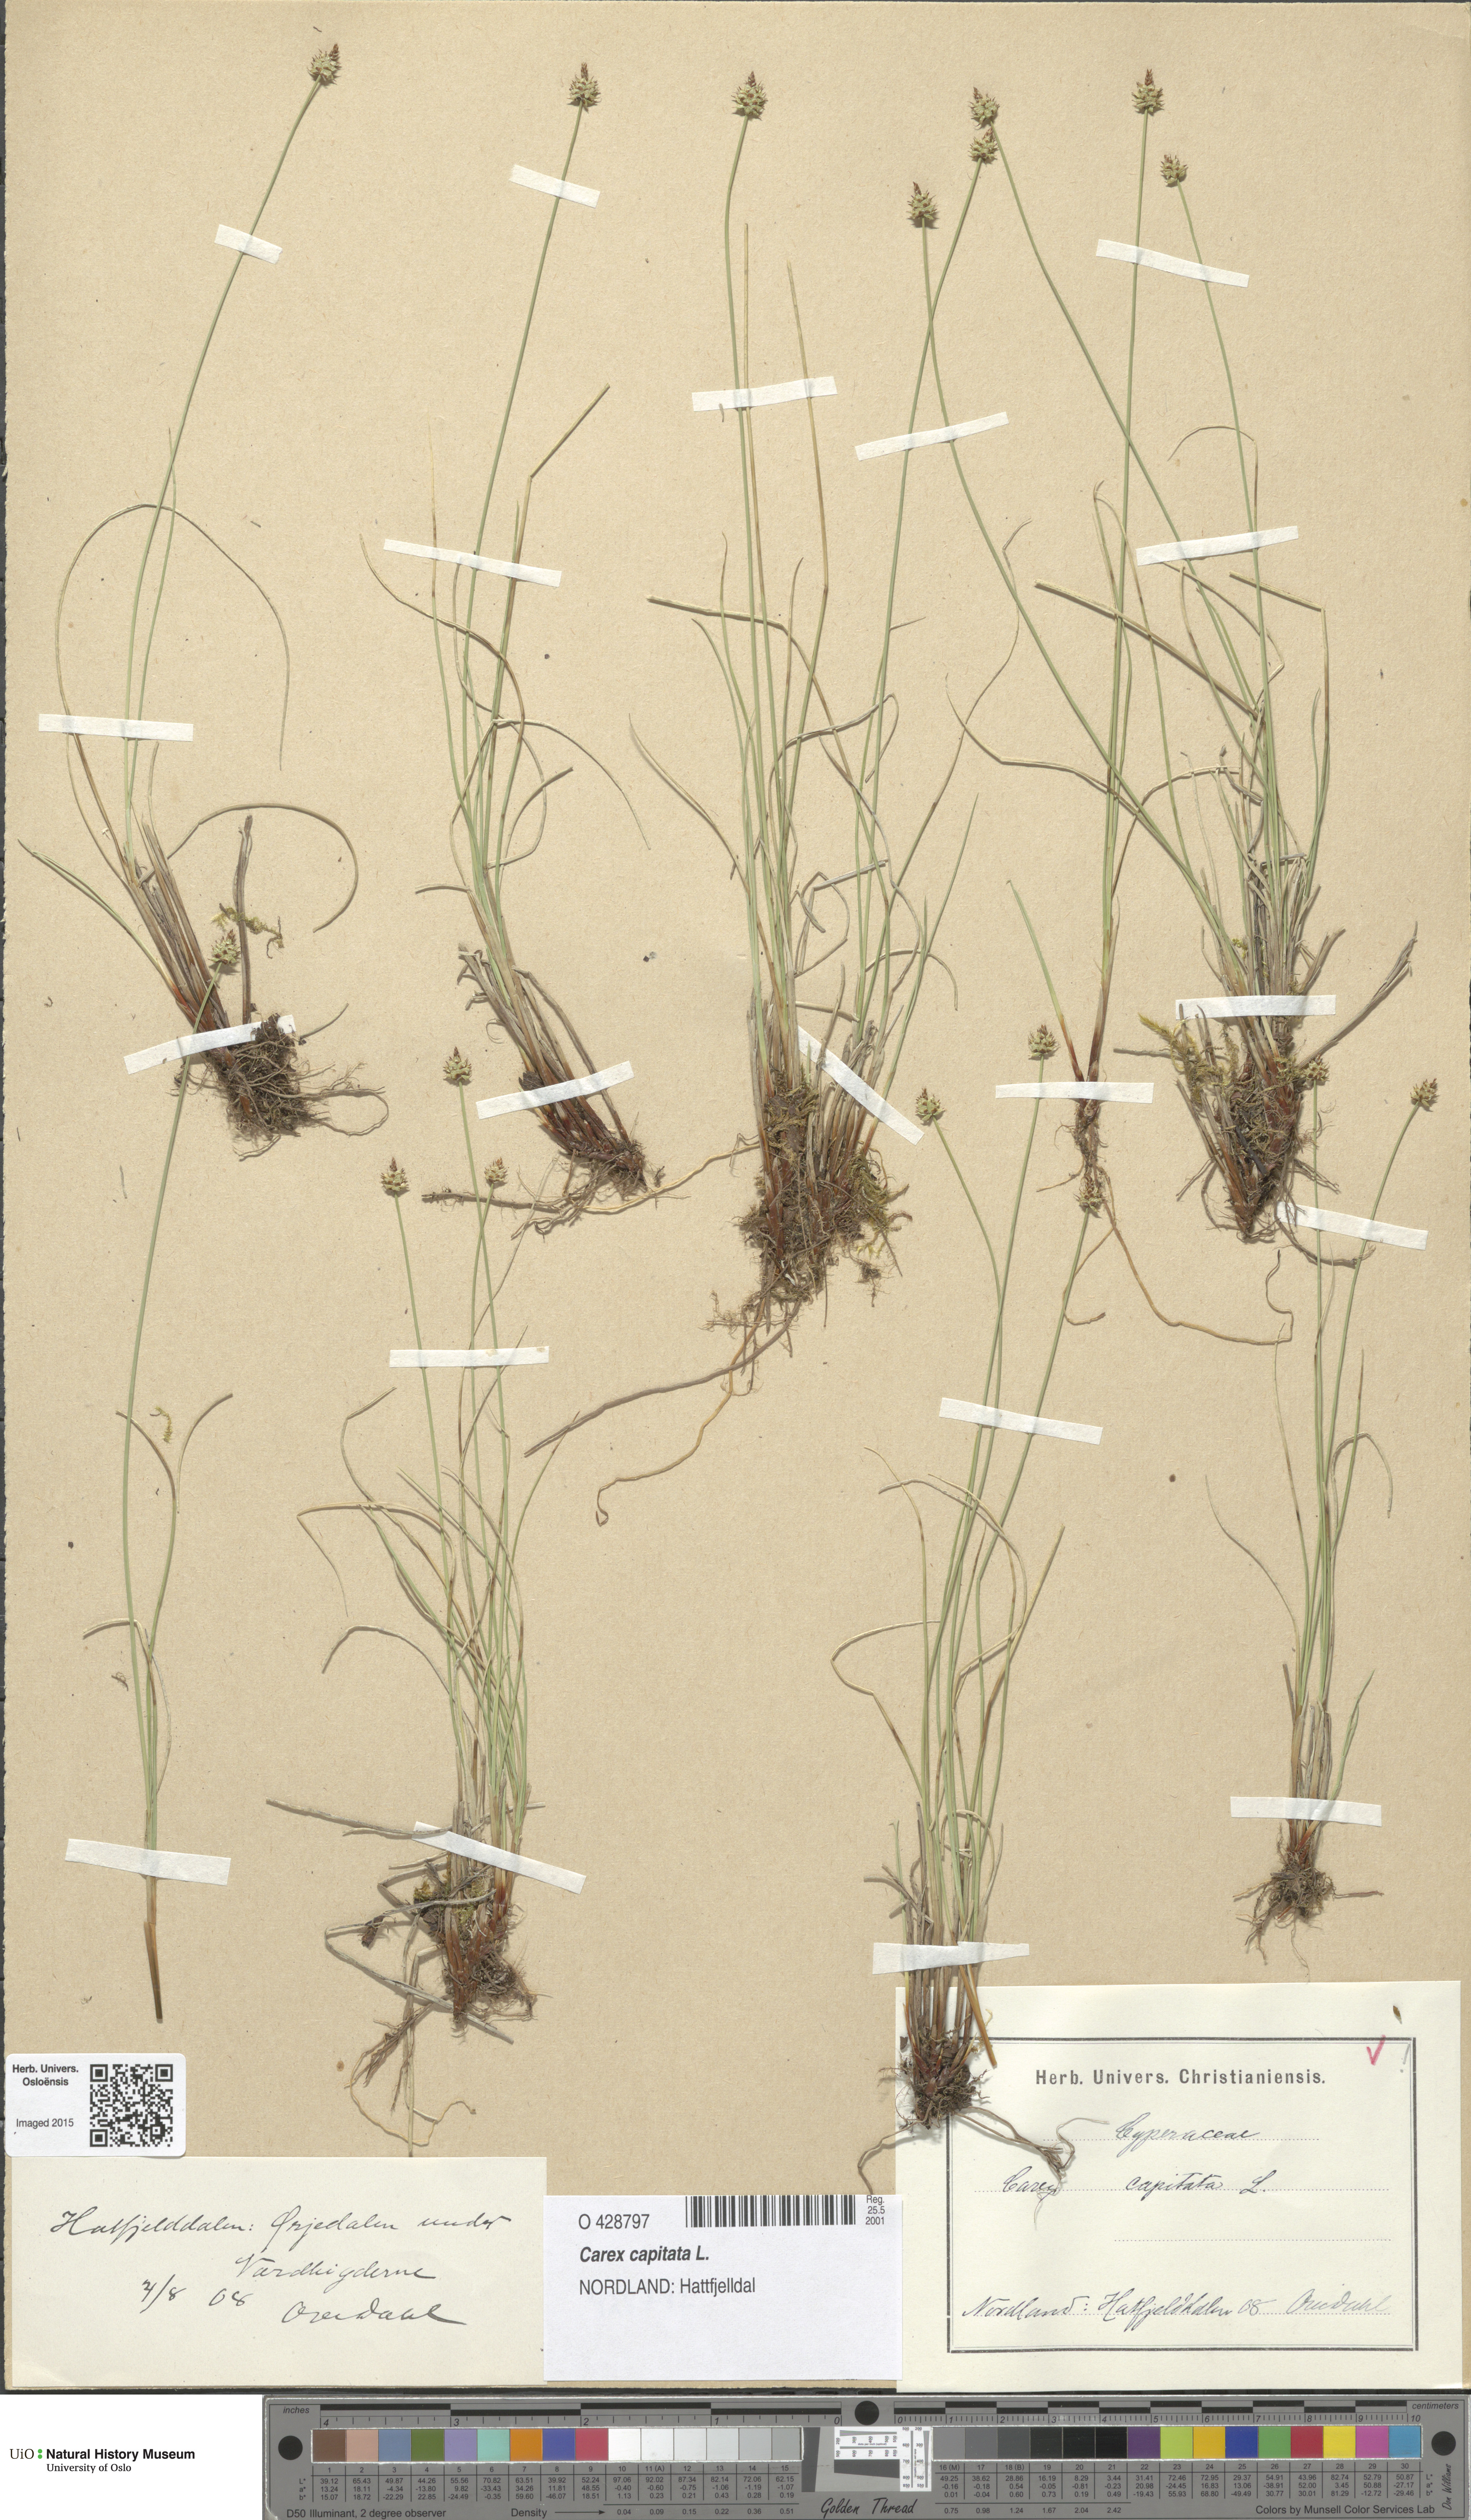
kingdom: Plantae
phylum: Tracheophyta
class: Liliopsida
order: Poales
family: Cyperaceae
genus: Carex
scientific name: Carex capitata
